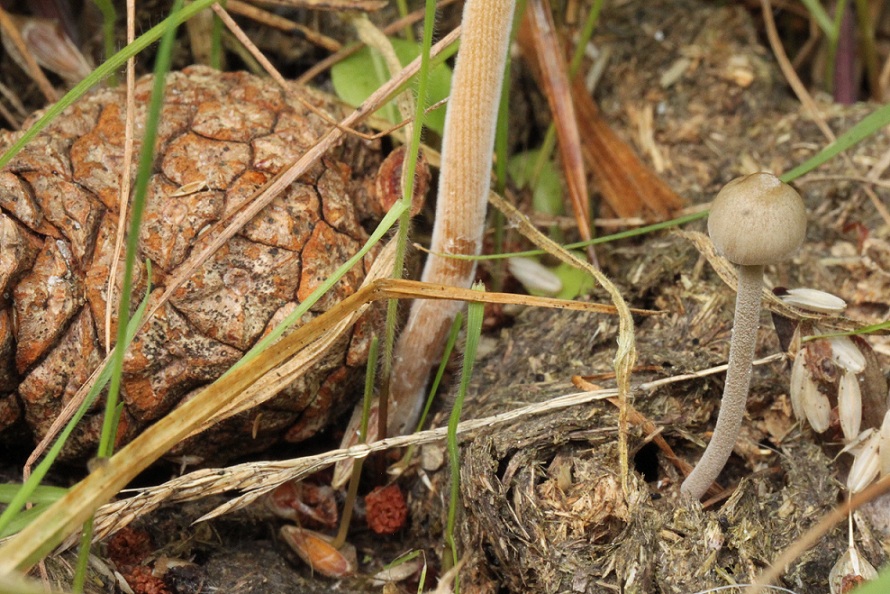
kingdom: Fungi
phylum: Basidiomycota
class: Agaricomycetes
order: Agaricales
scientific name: Agaricales
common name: champignonordenen
